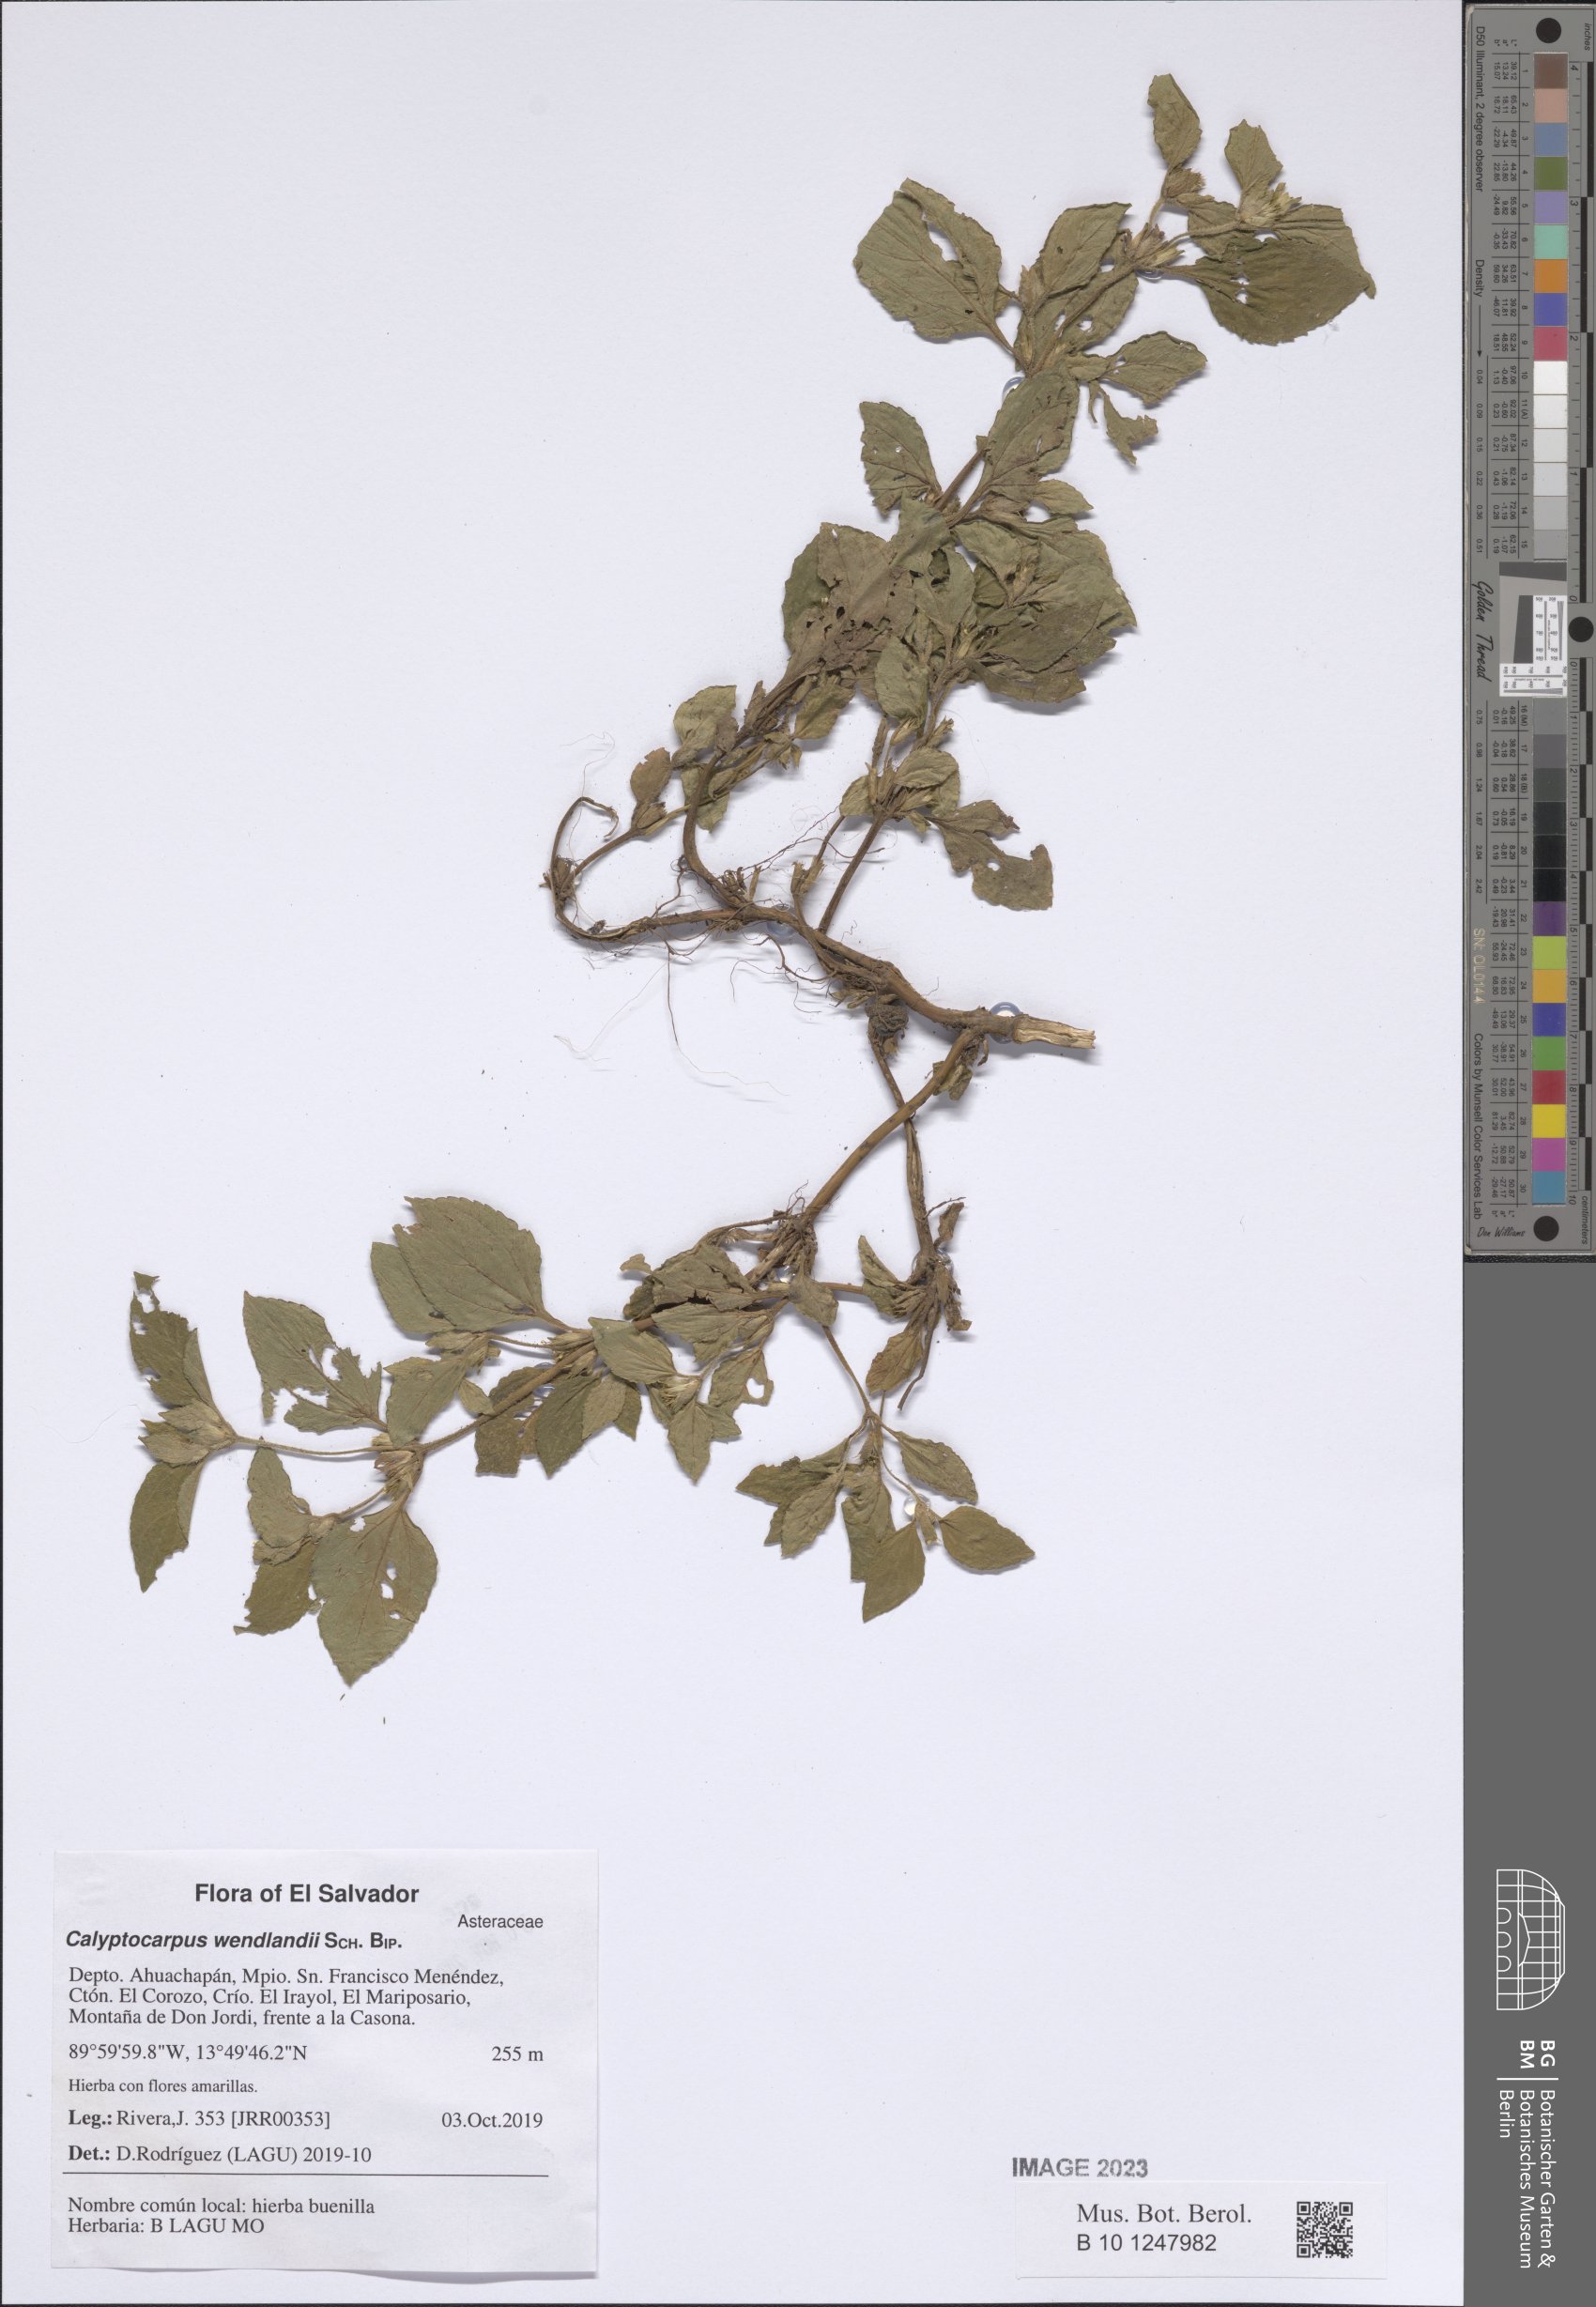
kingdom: Plantae
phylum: Tracheophyta
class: Magnoliopsida
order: Asterales
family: Asteraceae
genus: Calyptocarpus
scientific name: Calyptocarpus wendlandii
